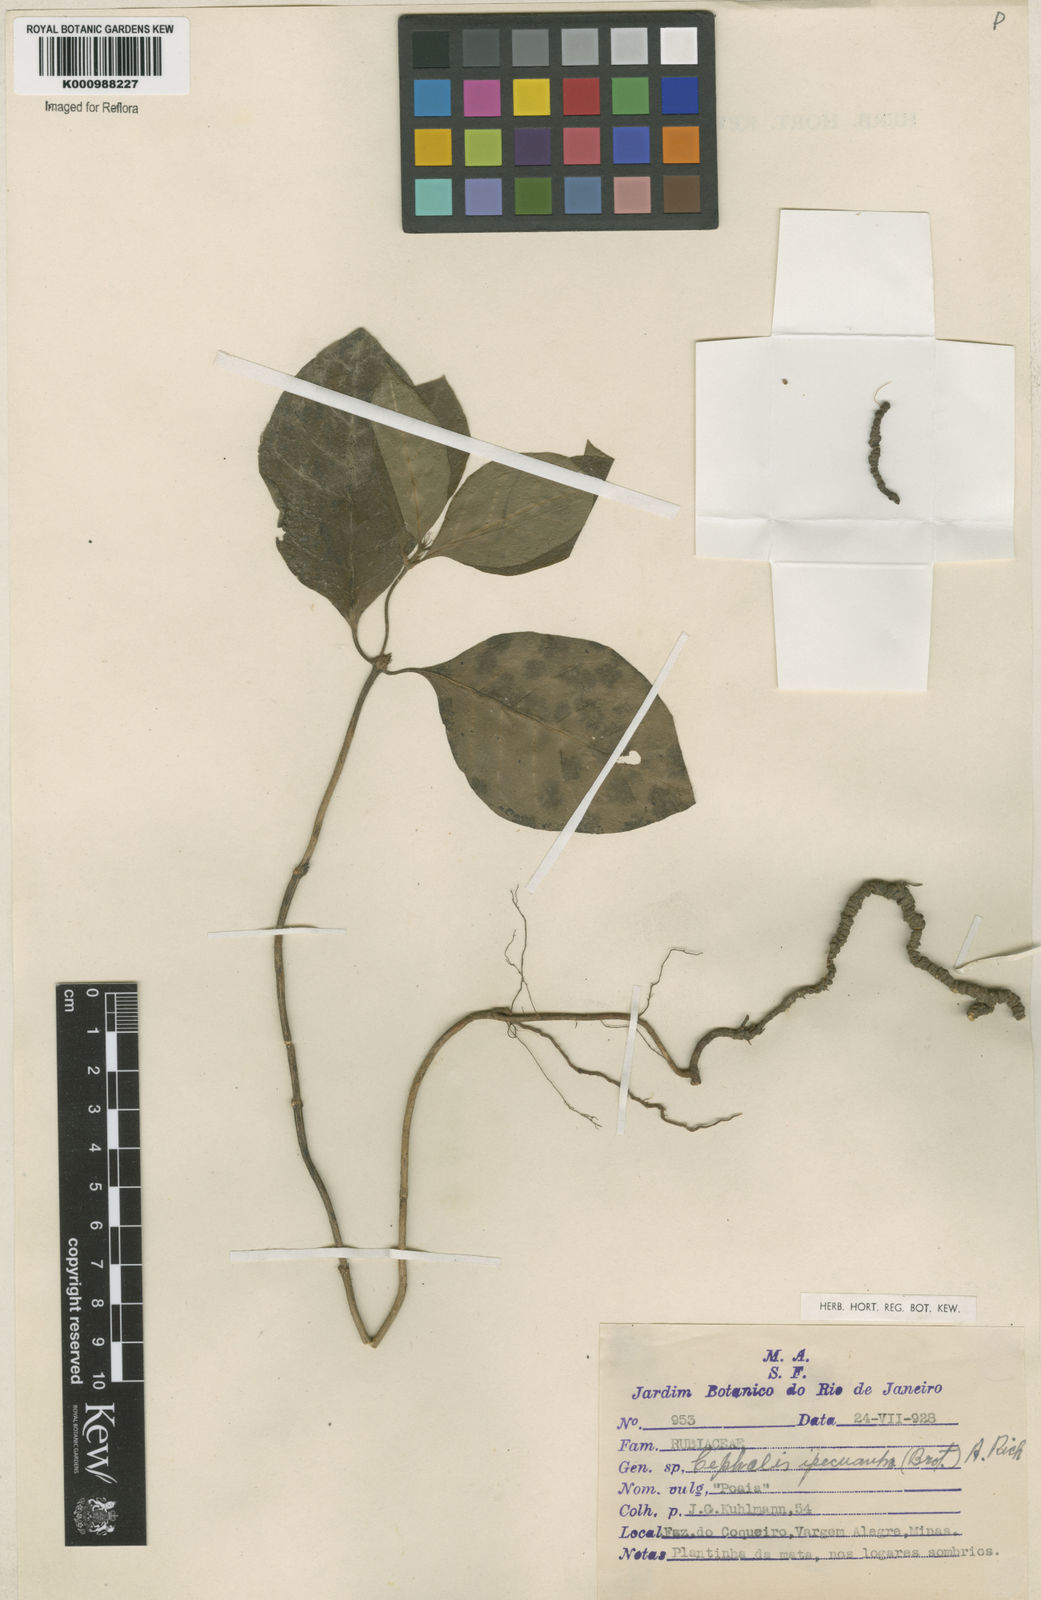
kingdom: Plantae
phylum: Tracheophyta
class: Magnoliopsida
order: Gentianales
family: Rubiaceae
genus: Carapichea
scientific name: Carapichea ipecacuanha
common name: Ipecac
